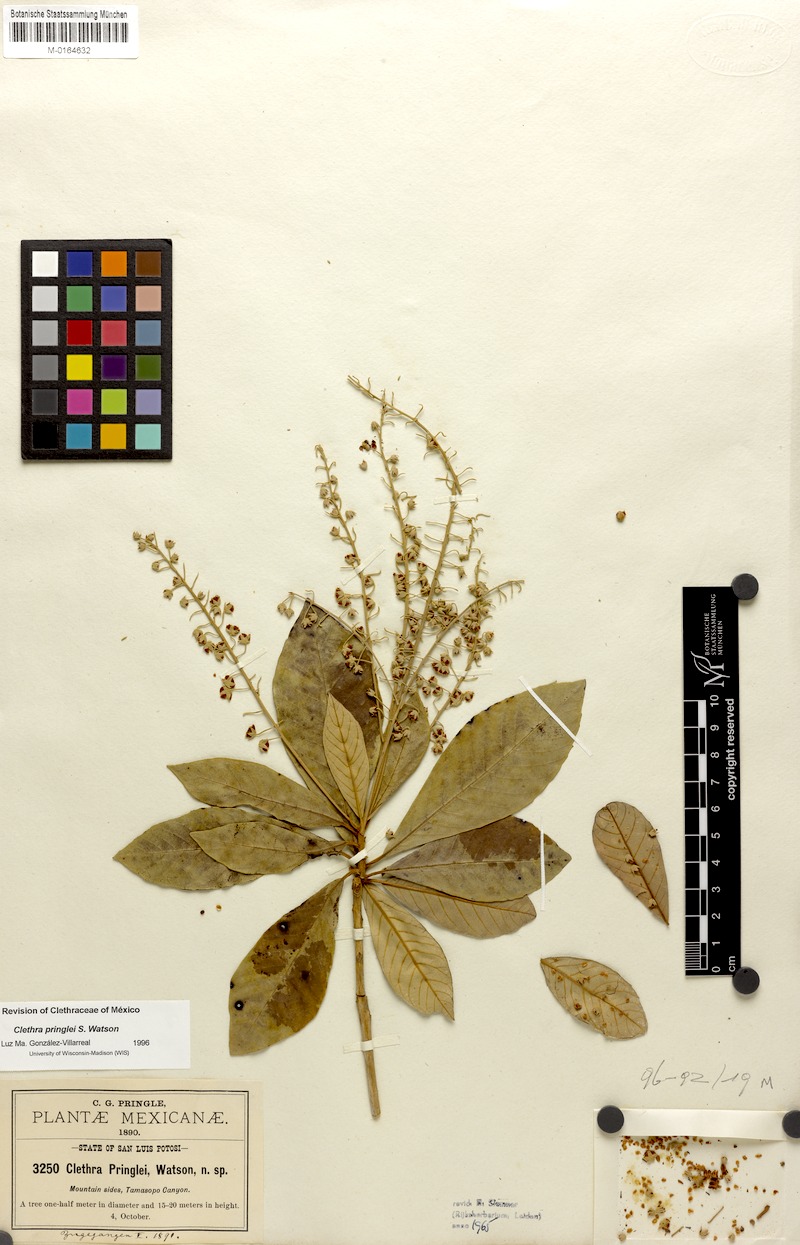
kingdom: Plantae
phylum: Tracheophyta
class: Magnoliopsida
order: Ericales
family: Clethraceae
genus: Clethra
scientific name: Clethra pringlei
